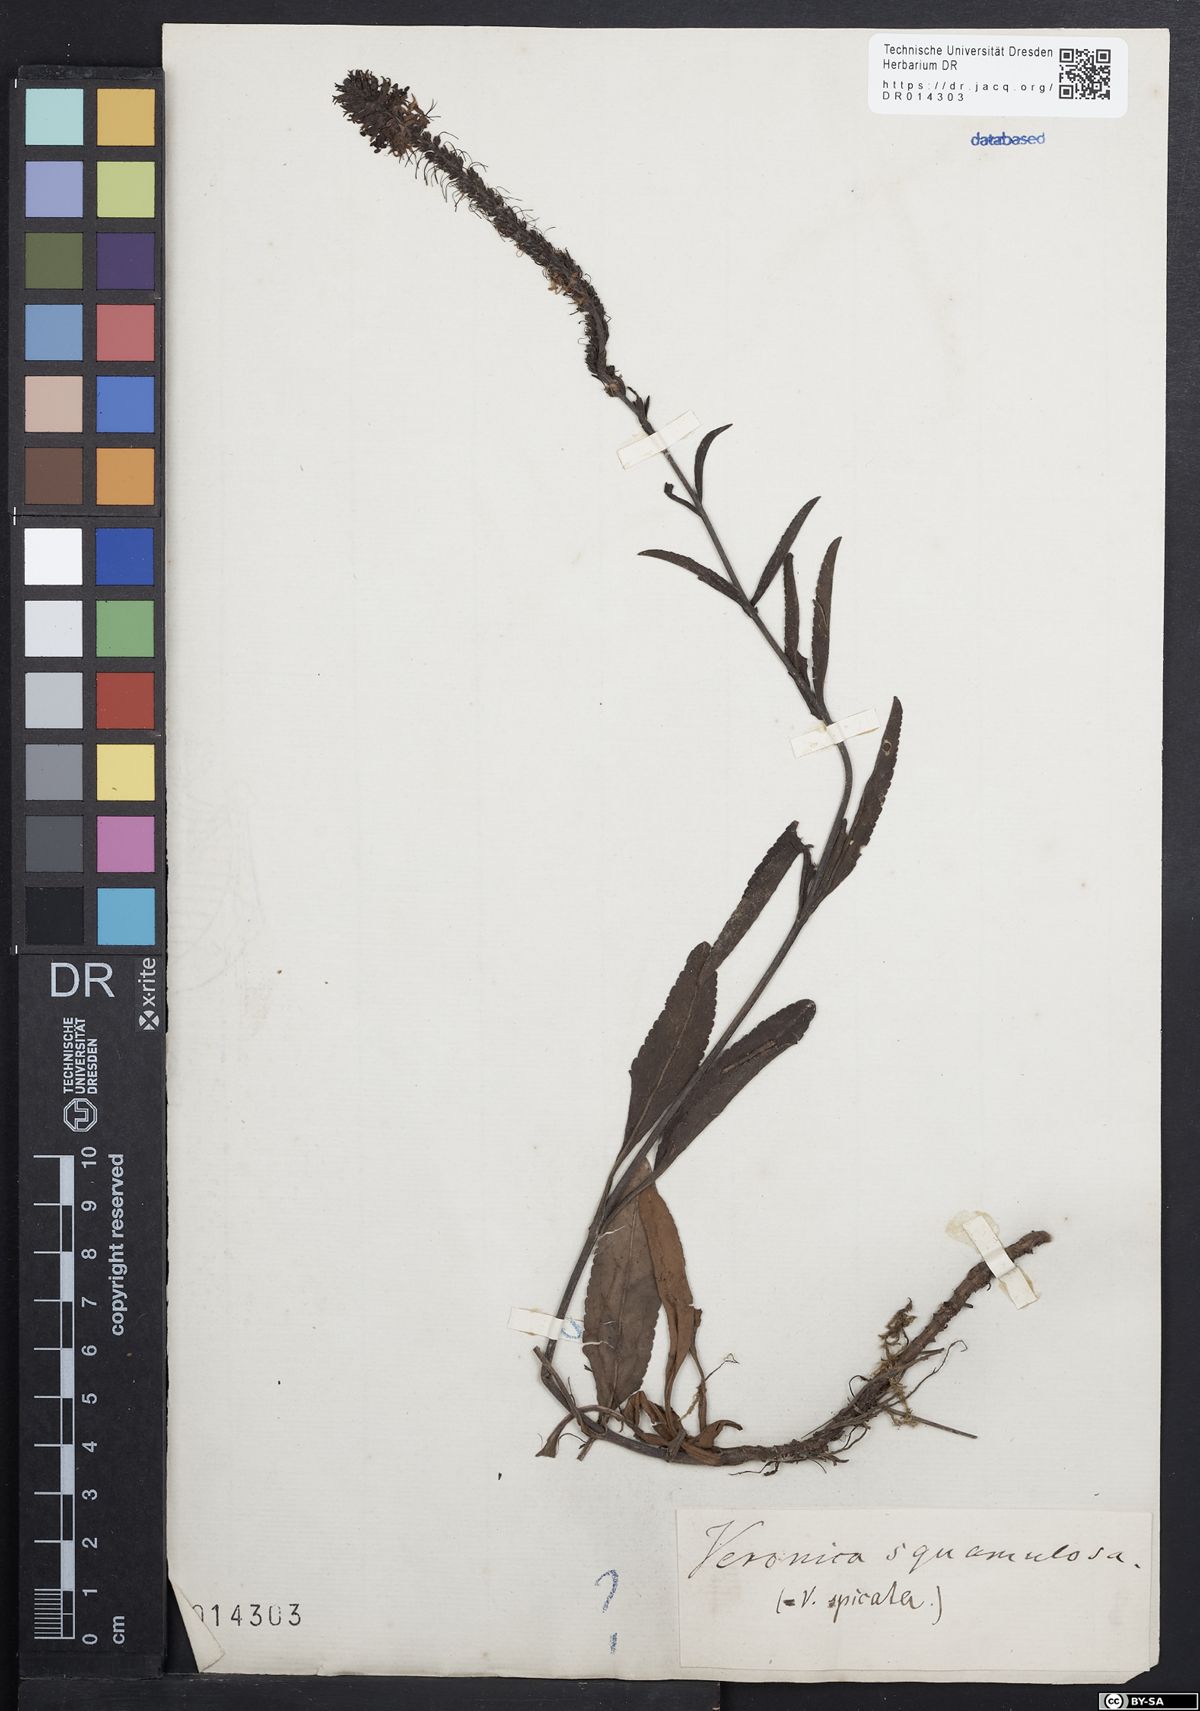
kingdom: Plantae
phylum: Tracheophyta
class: Magnoliopsida
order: Lamiales
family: Plantaginaceae
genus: Veronica
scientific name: Veronica spicata
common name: Spiked speedwell
